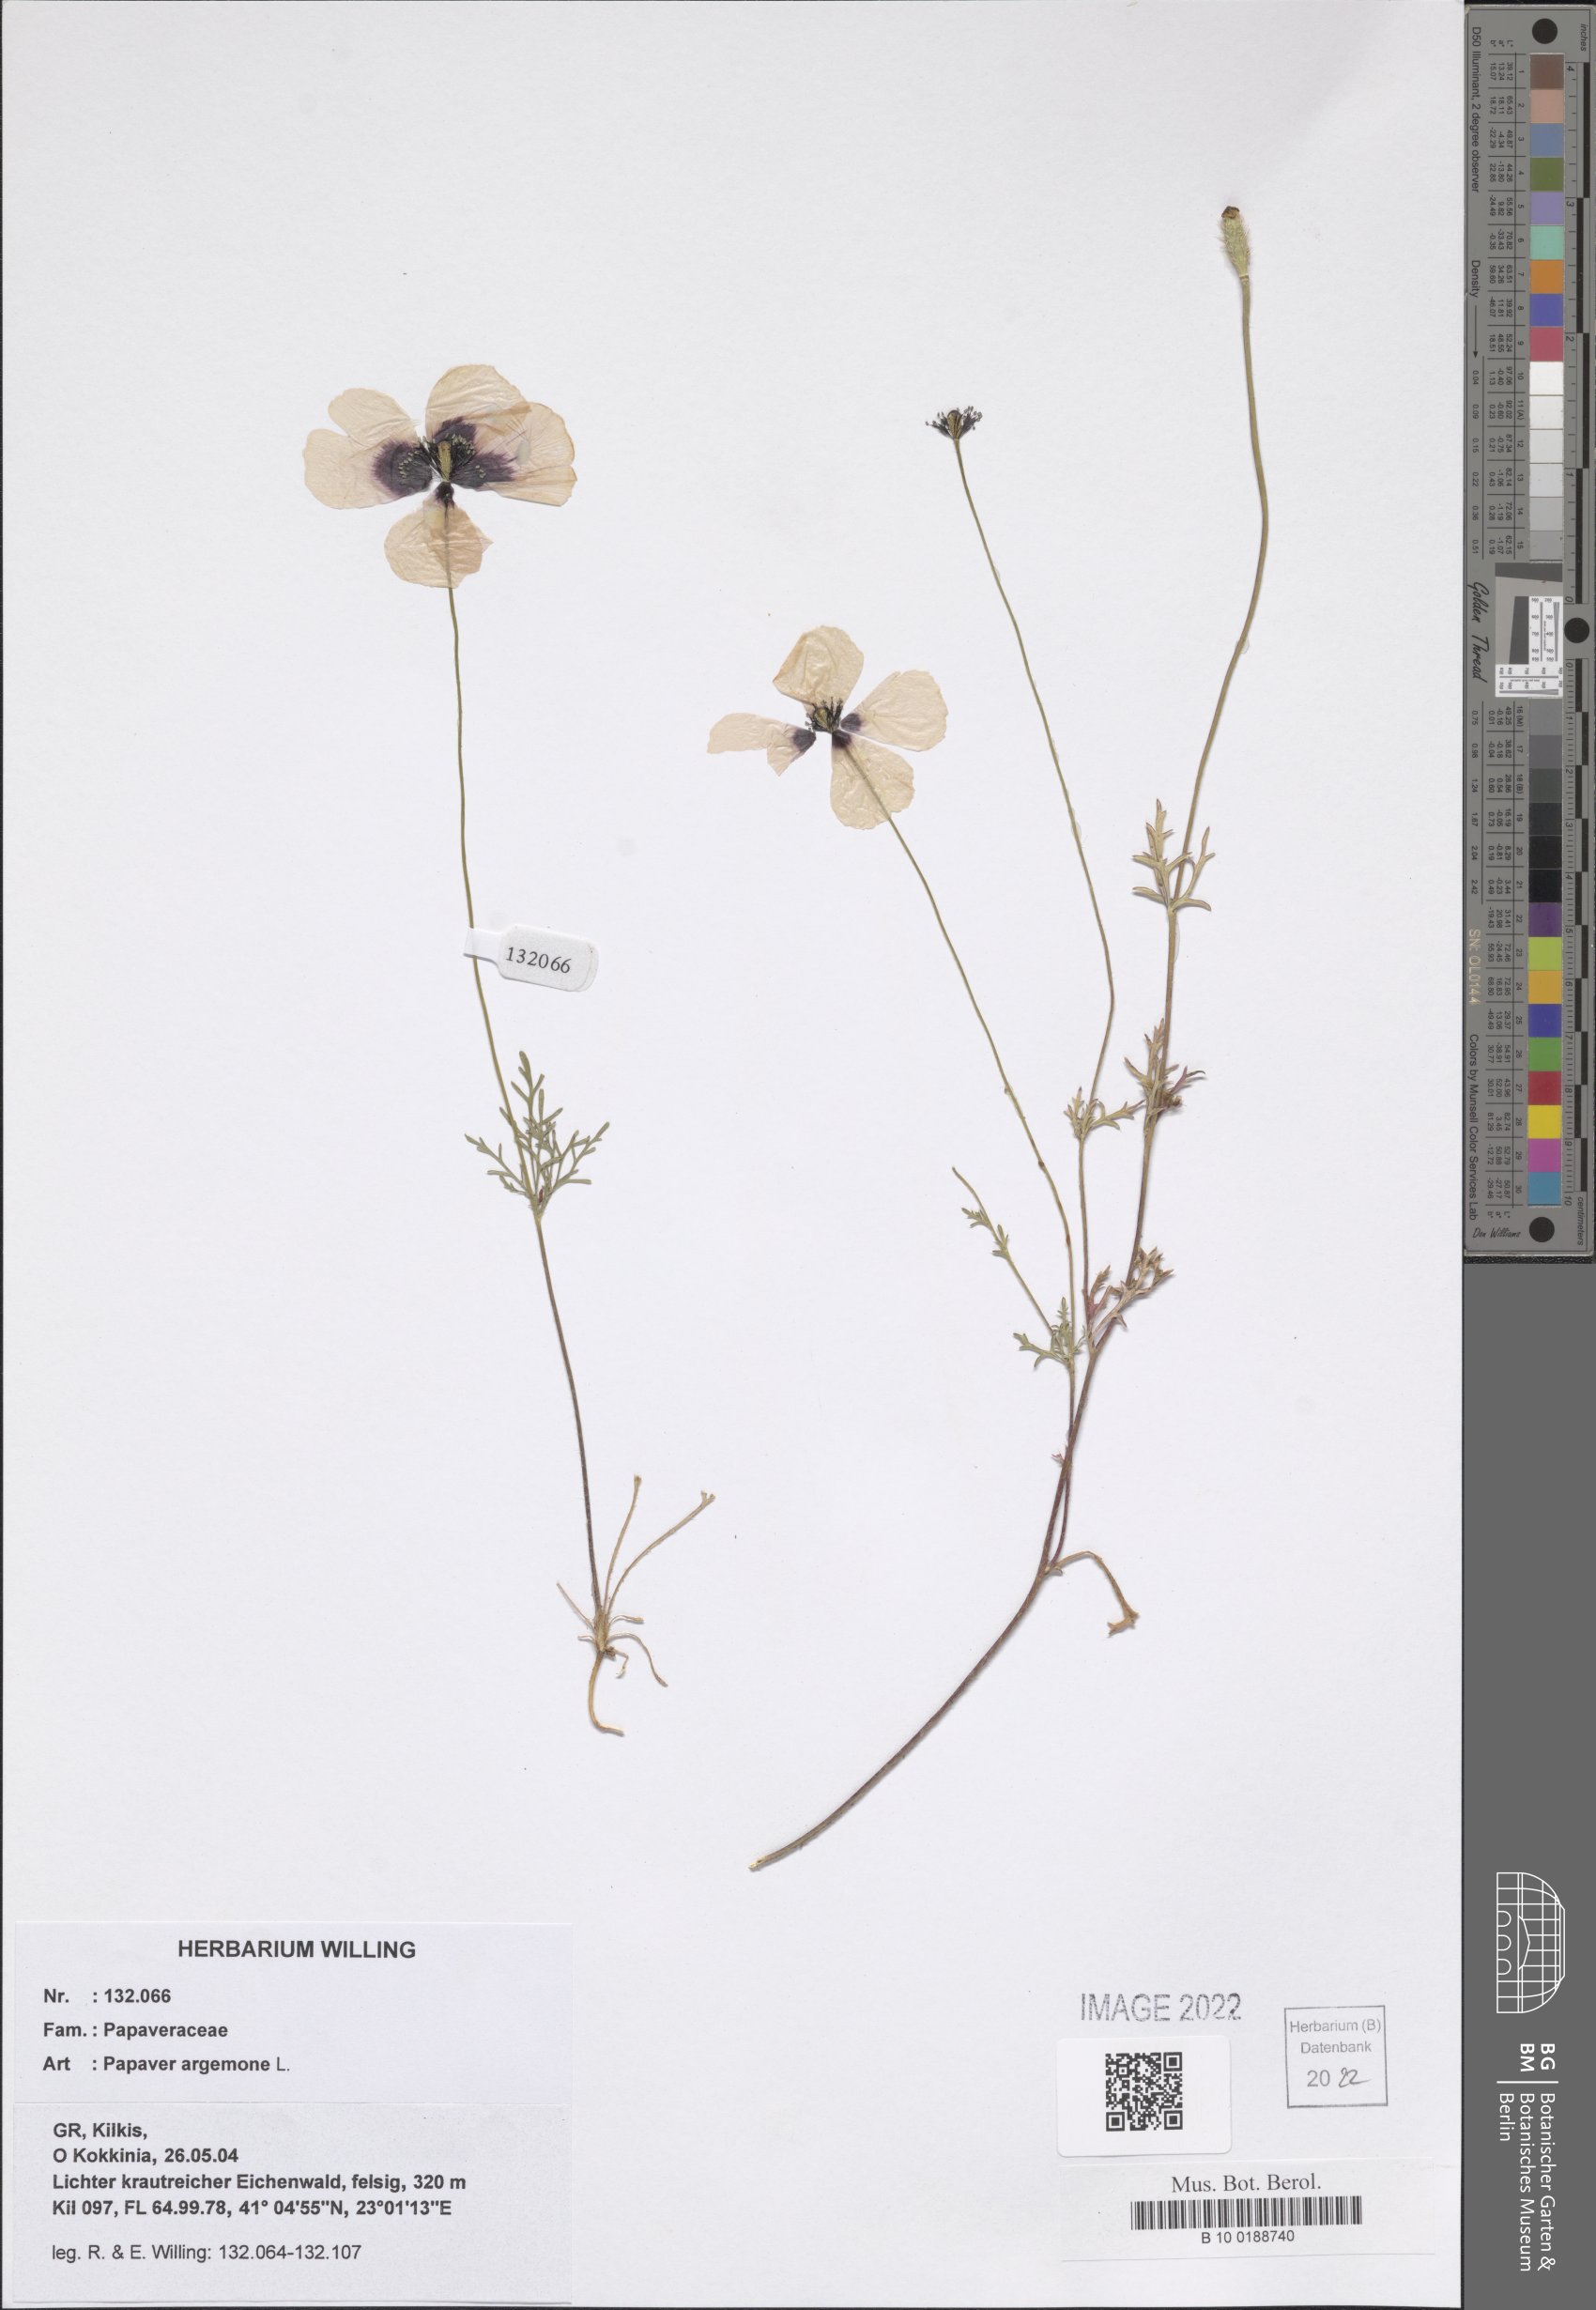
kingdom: Plantae
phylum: Tracheophyta
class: Magnoliopsida
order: Ranunculales
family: Papaveraceae
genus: Roemeria
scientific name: Roemeria argemone
